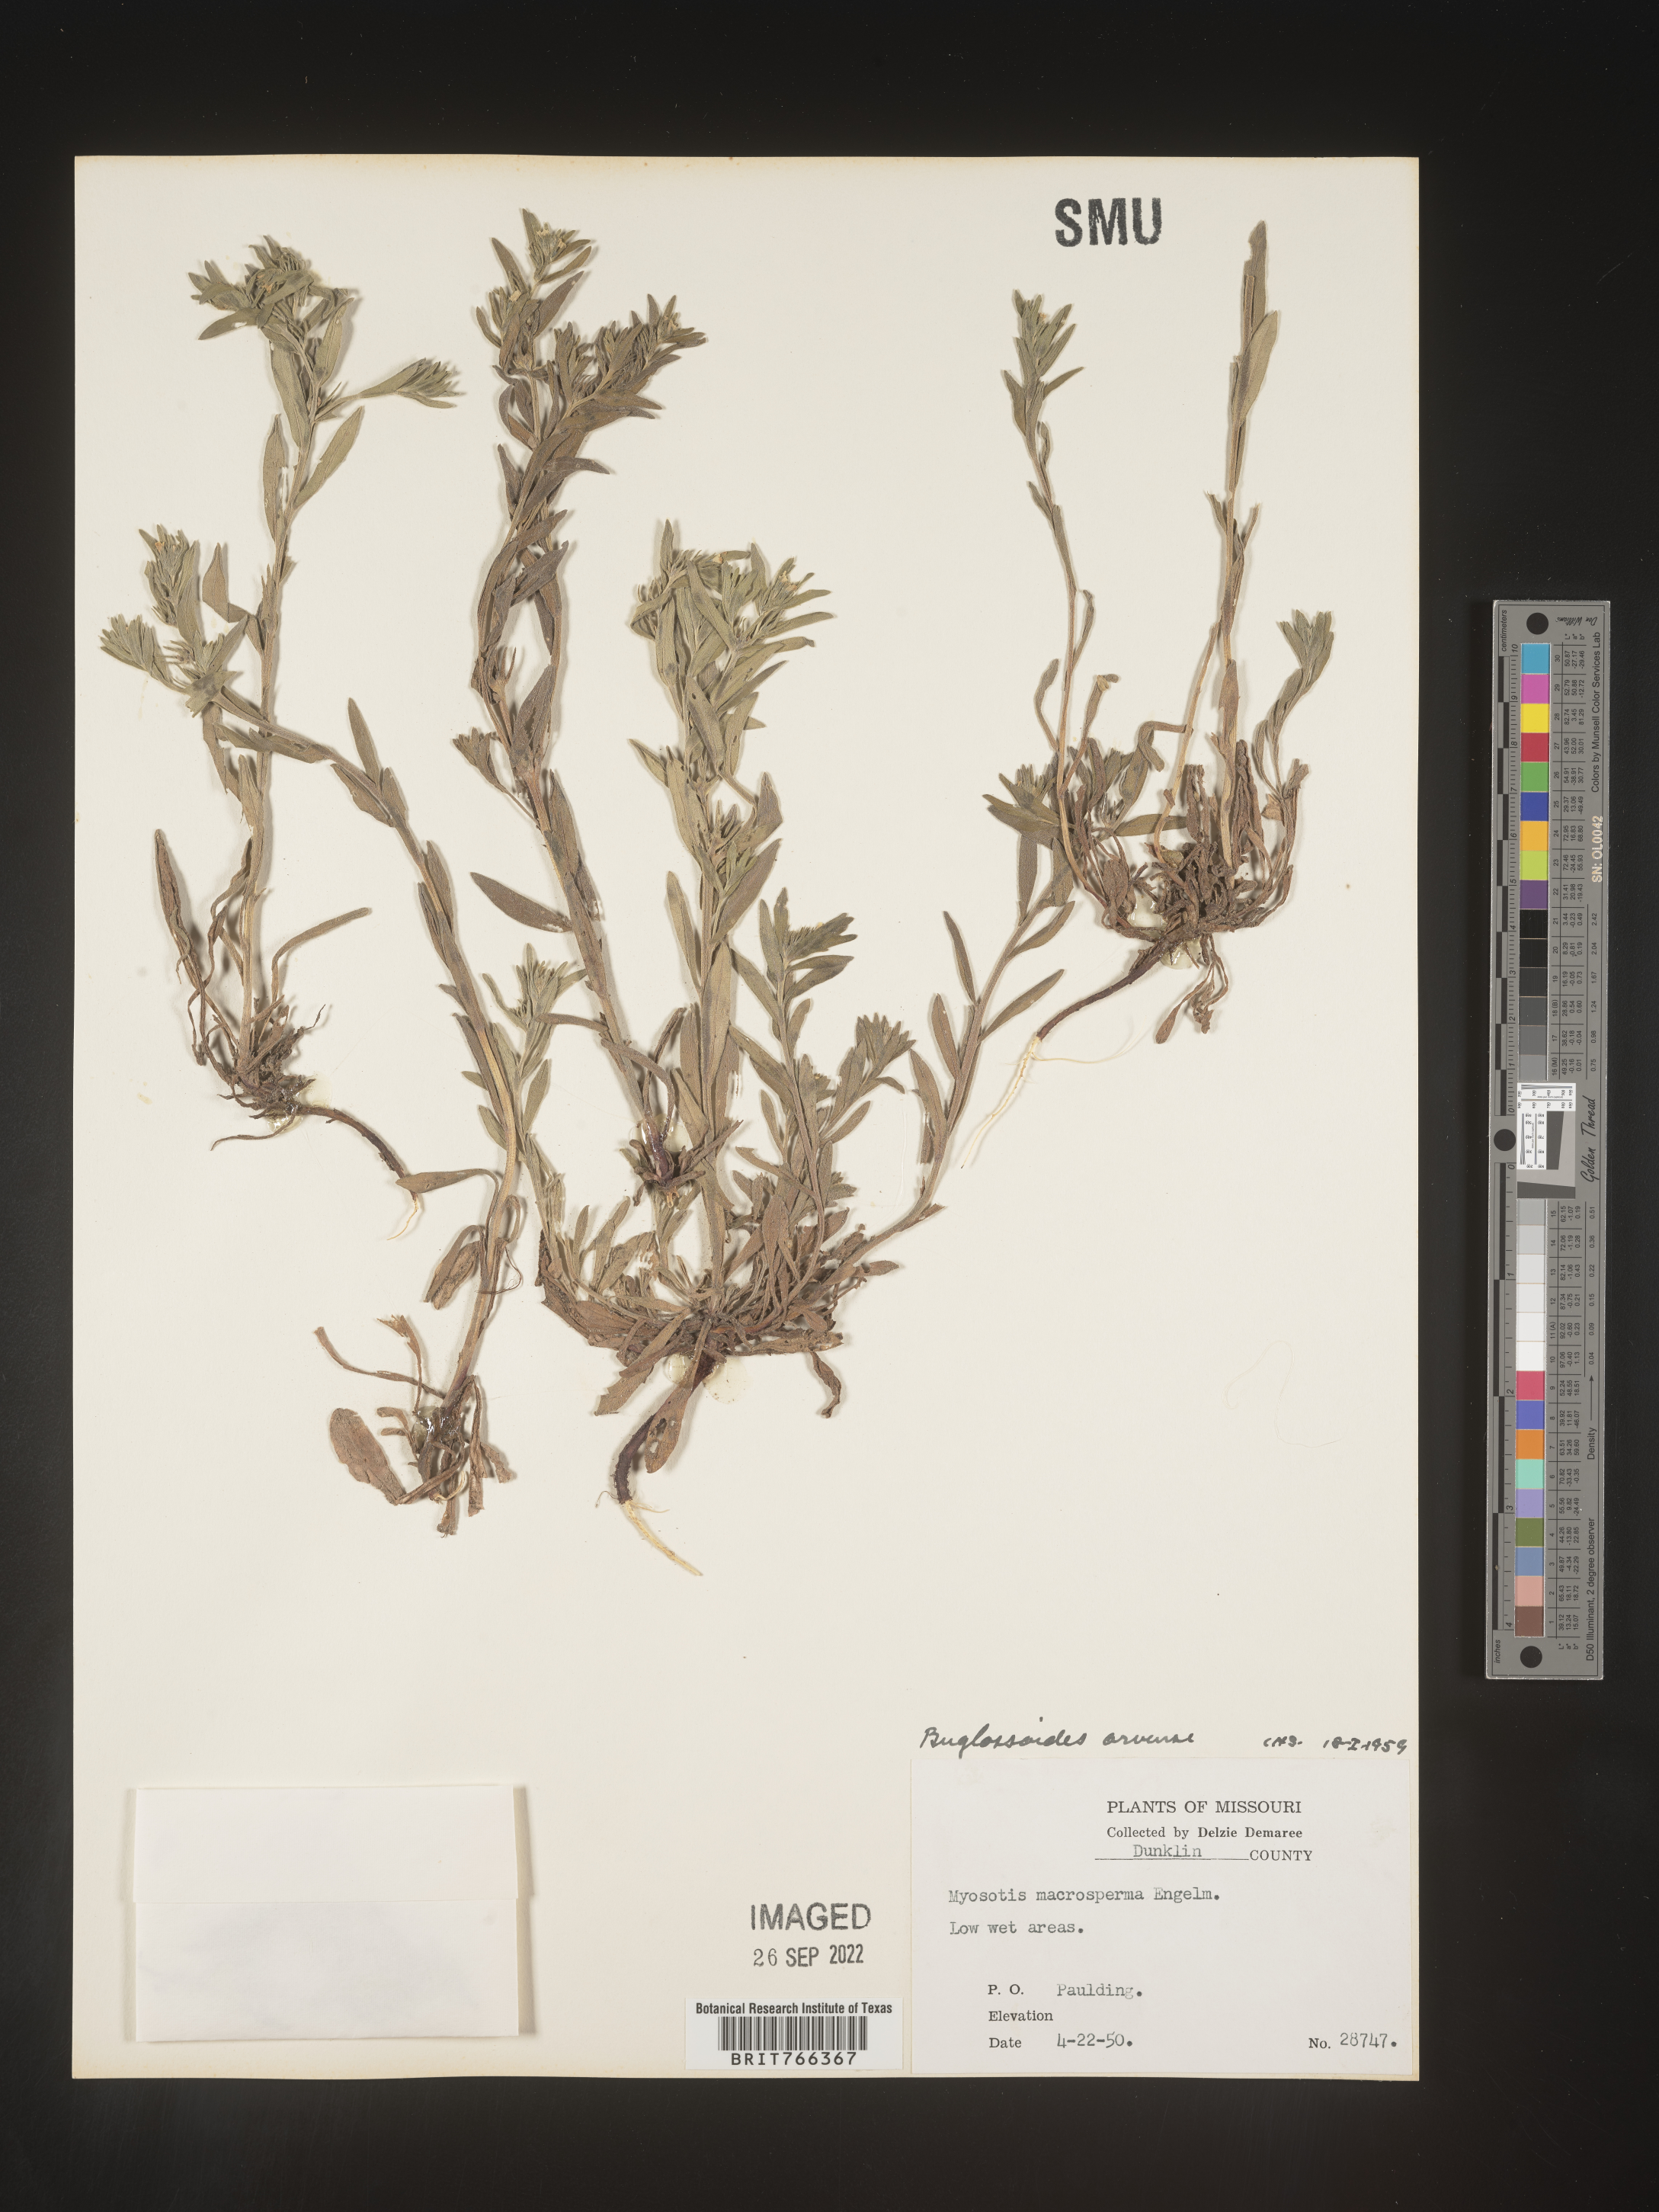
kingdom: Plantae
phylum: Tracheophyta
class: Magnoliopsida
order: Boraginales
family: Boraginaceae
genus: Buglossoides
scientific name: Buglossoides arvensis
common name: Corn gromwell
